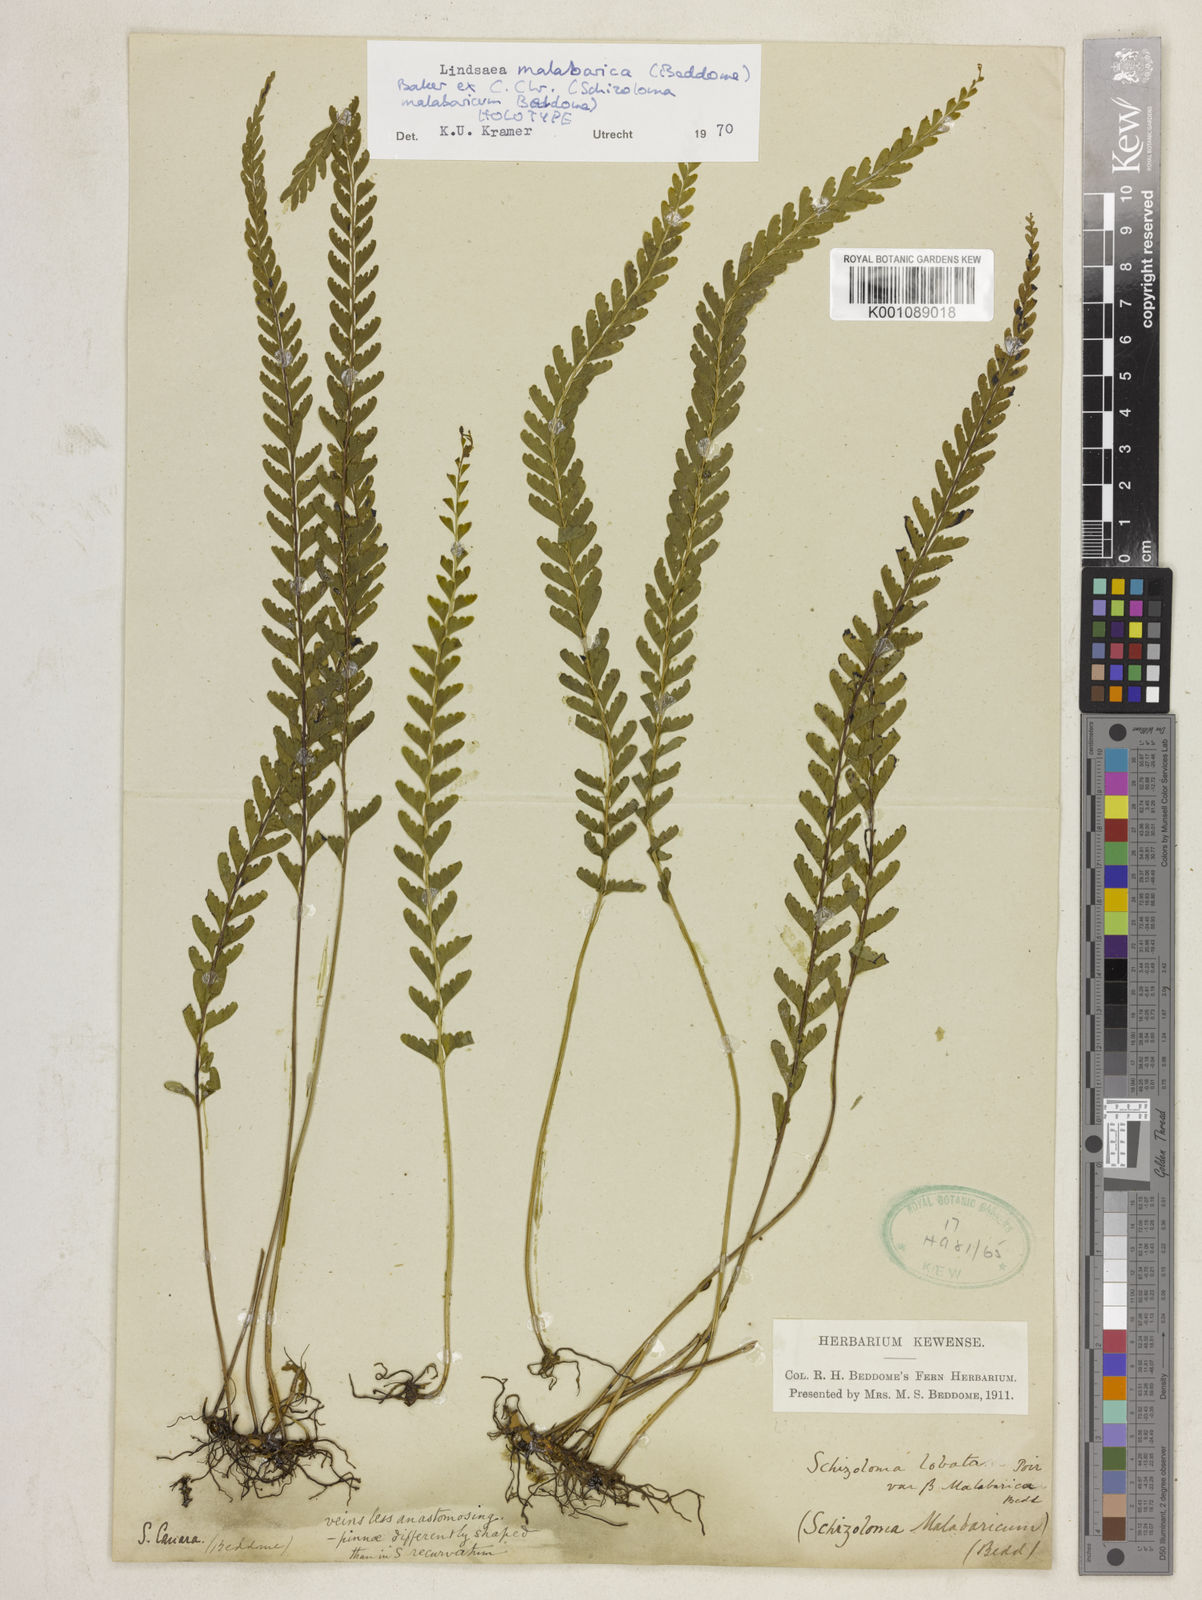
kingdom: Plantae
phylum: Tracheophyta
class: Polypodiopsida
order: Polypodiales
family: Lindsaeaceae
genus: Lindsaea
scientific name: Lindsaea malabarica
